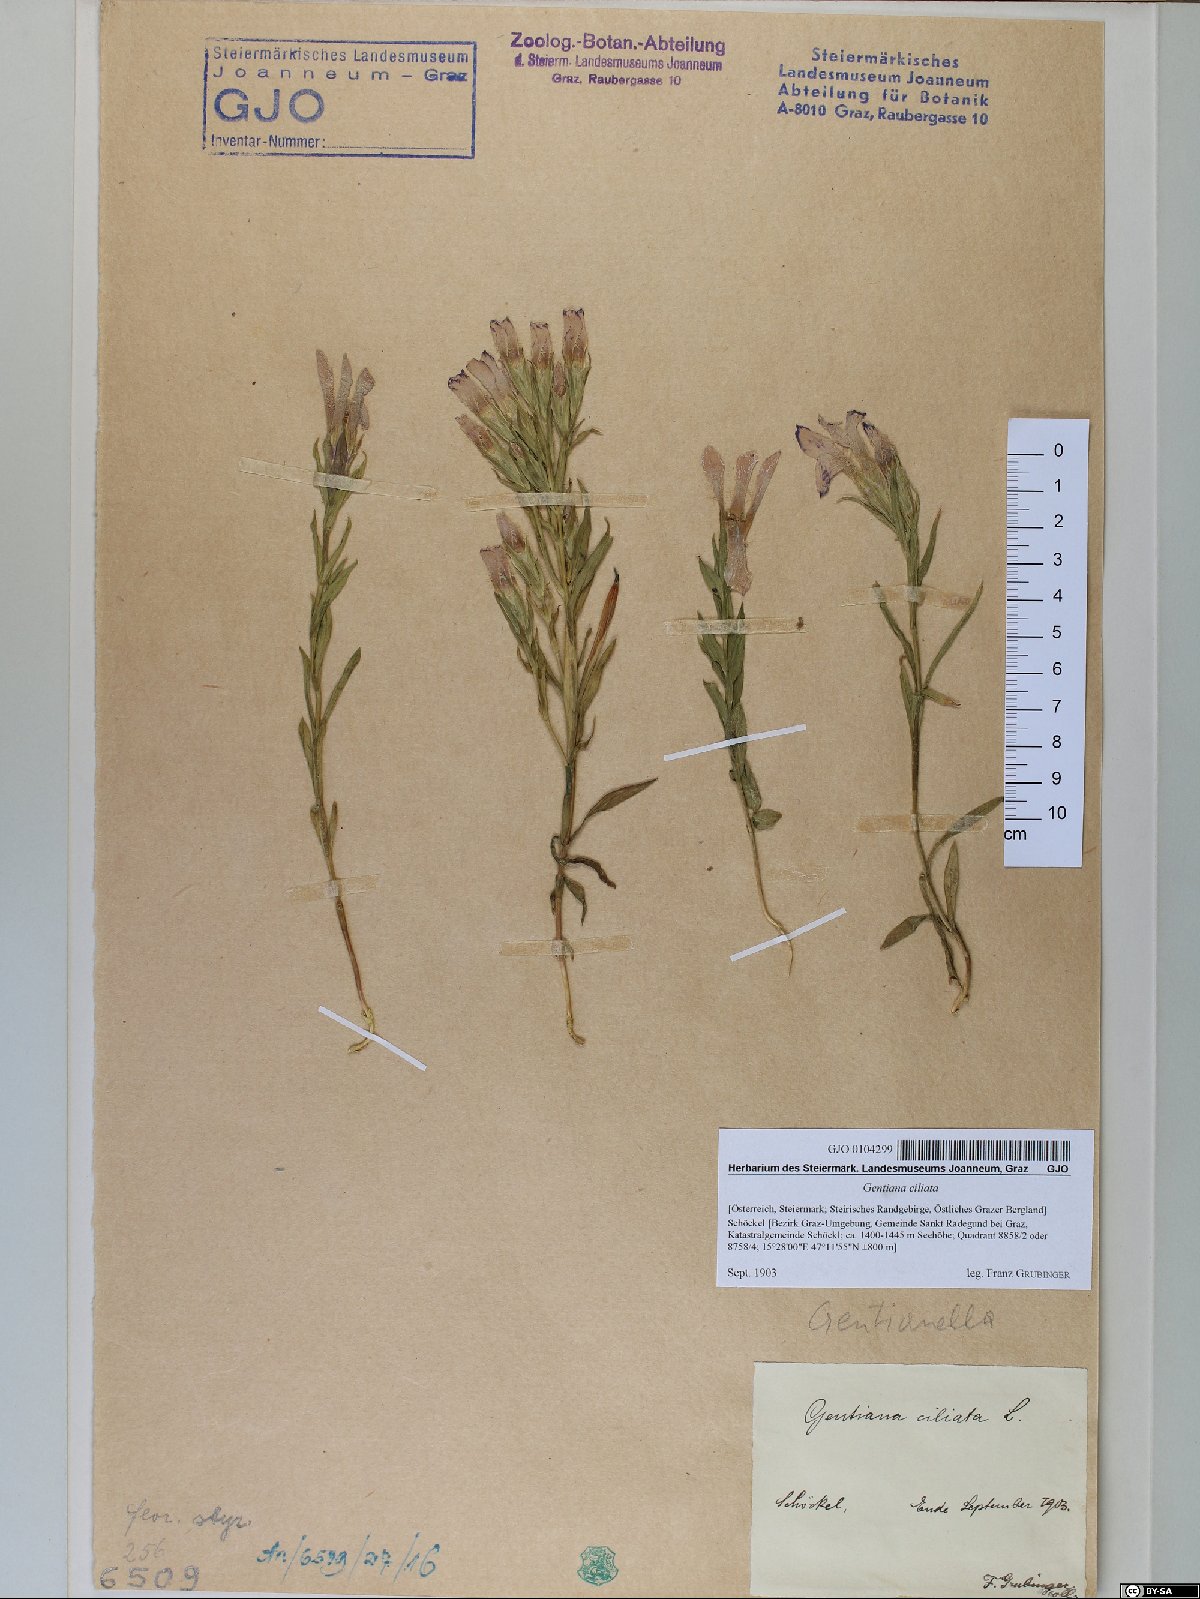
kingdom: Plantae
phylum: Tracheophyta
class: Magnoliopsida
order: Gentianales
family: Gentianaceae
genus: Gentianopsis
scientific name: Gentianopsis ciliata
